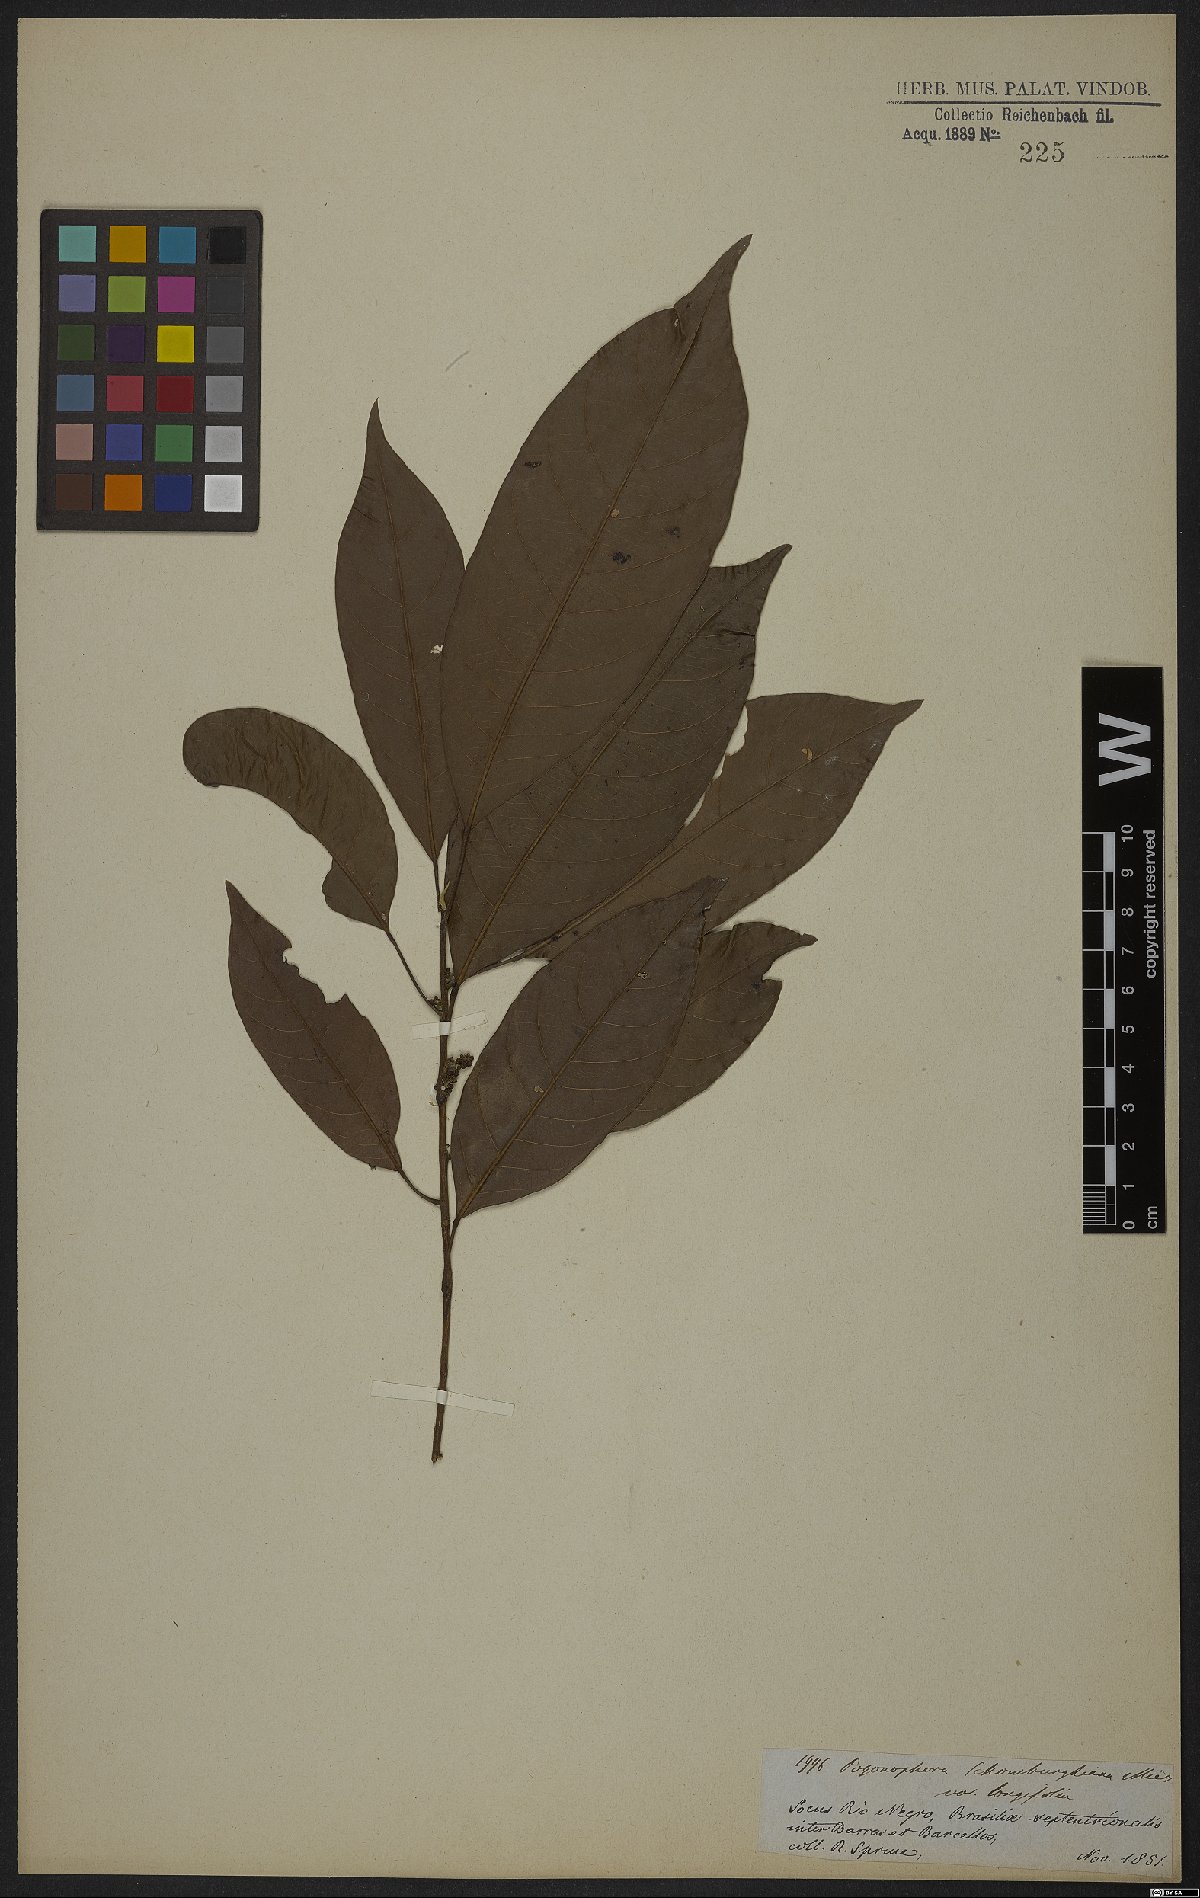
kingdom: Plantae
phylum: Tracheophyta
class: Magnoliopsida
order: Malpighiales
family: Peraceae
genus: Pogonophora
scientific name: Pogonophora schomburgkiana
